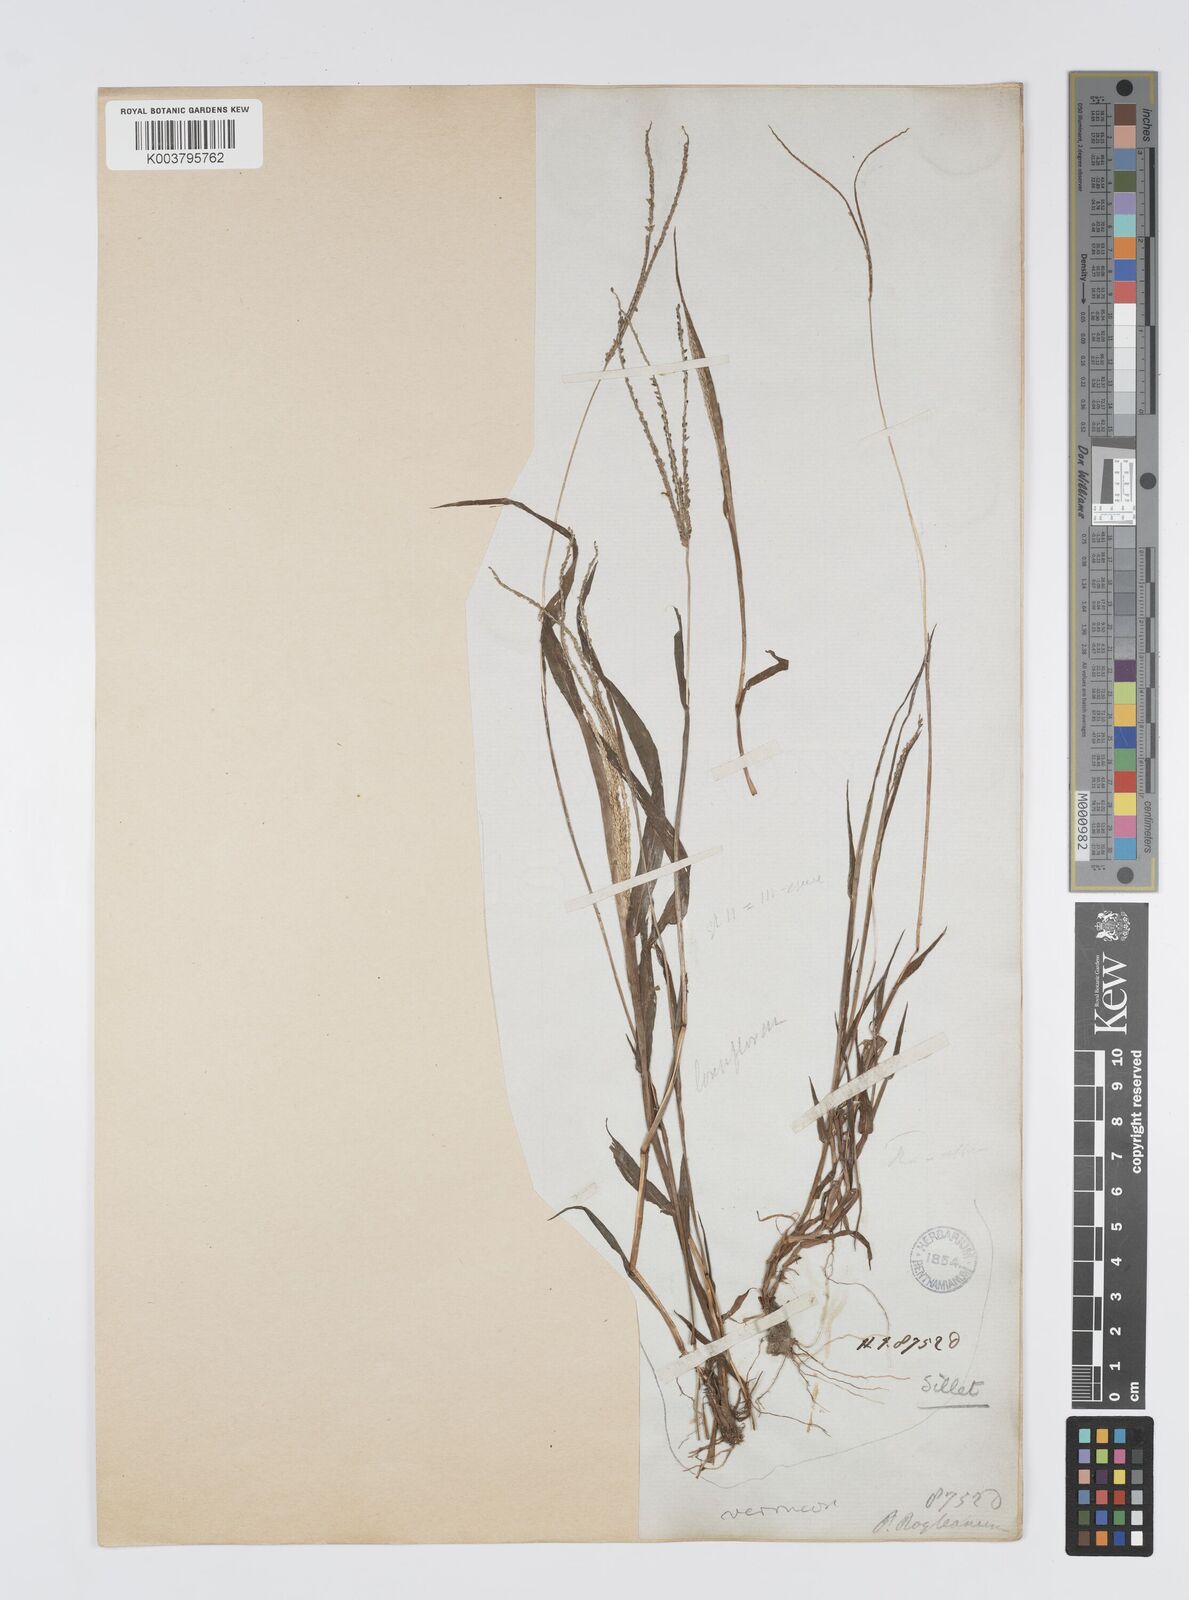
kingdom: Plantae
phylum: Tracheophyta
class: Liliopsida
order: Poales
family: Poaceae
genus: Digitaria
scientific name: Digitaria violascens
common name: Violet crabgrass
